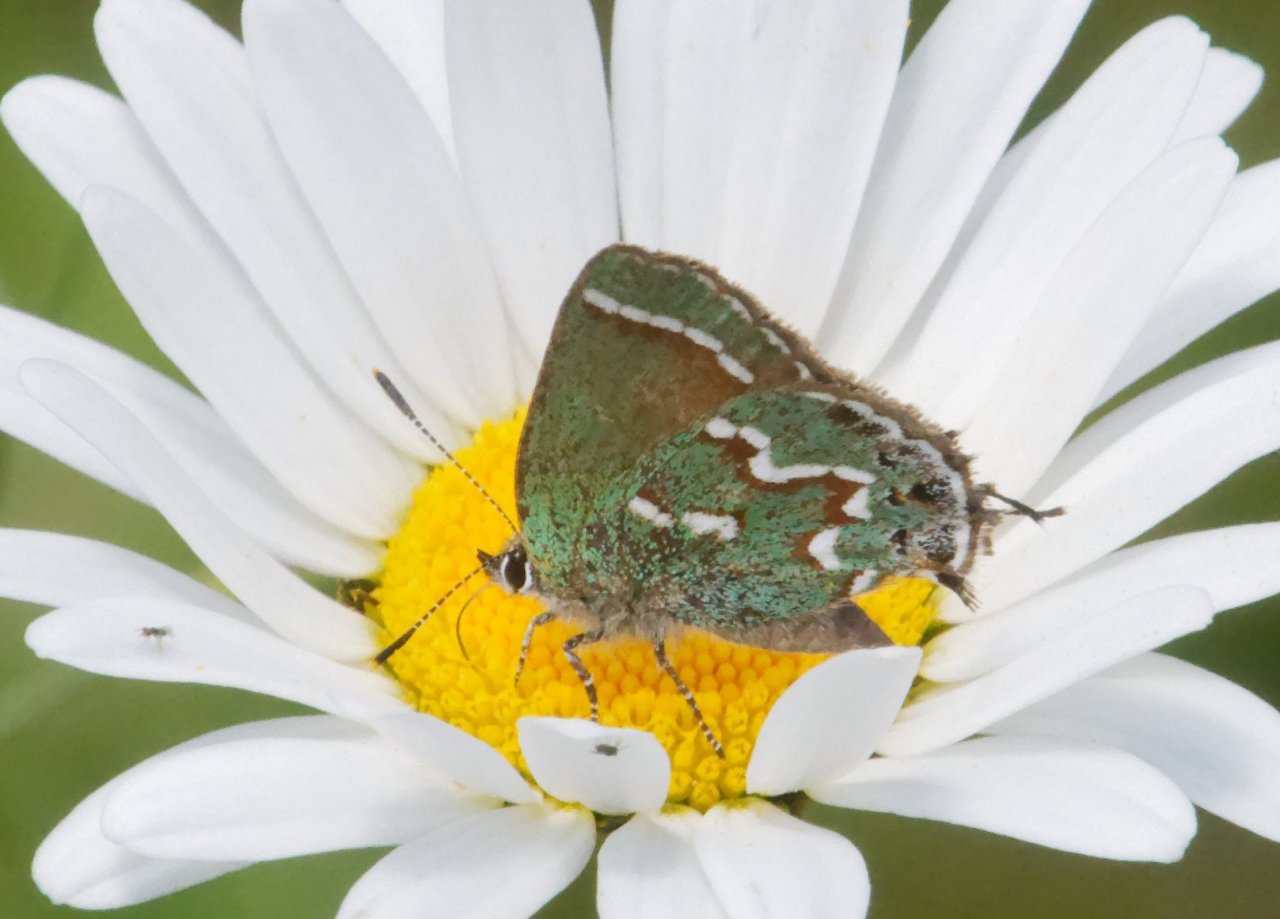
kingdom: Animalia
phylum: Arthropoda
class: Insecta
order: Lepidoptera
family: Lycaenidae
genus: Mitoura
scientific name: Mitoura gryneus
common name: Juniper Hairstreak
